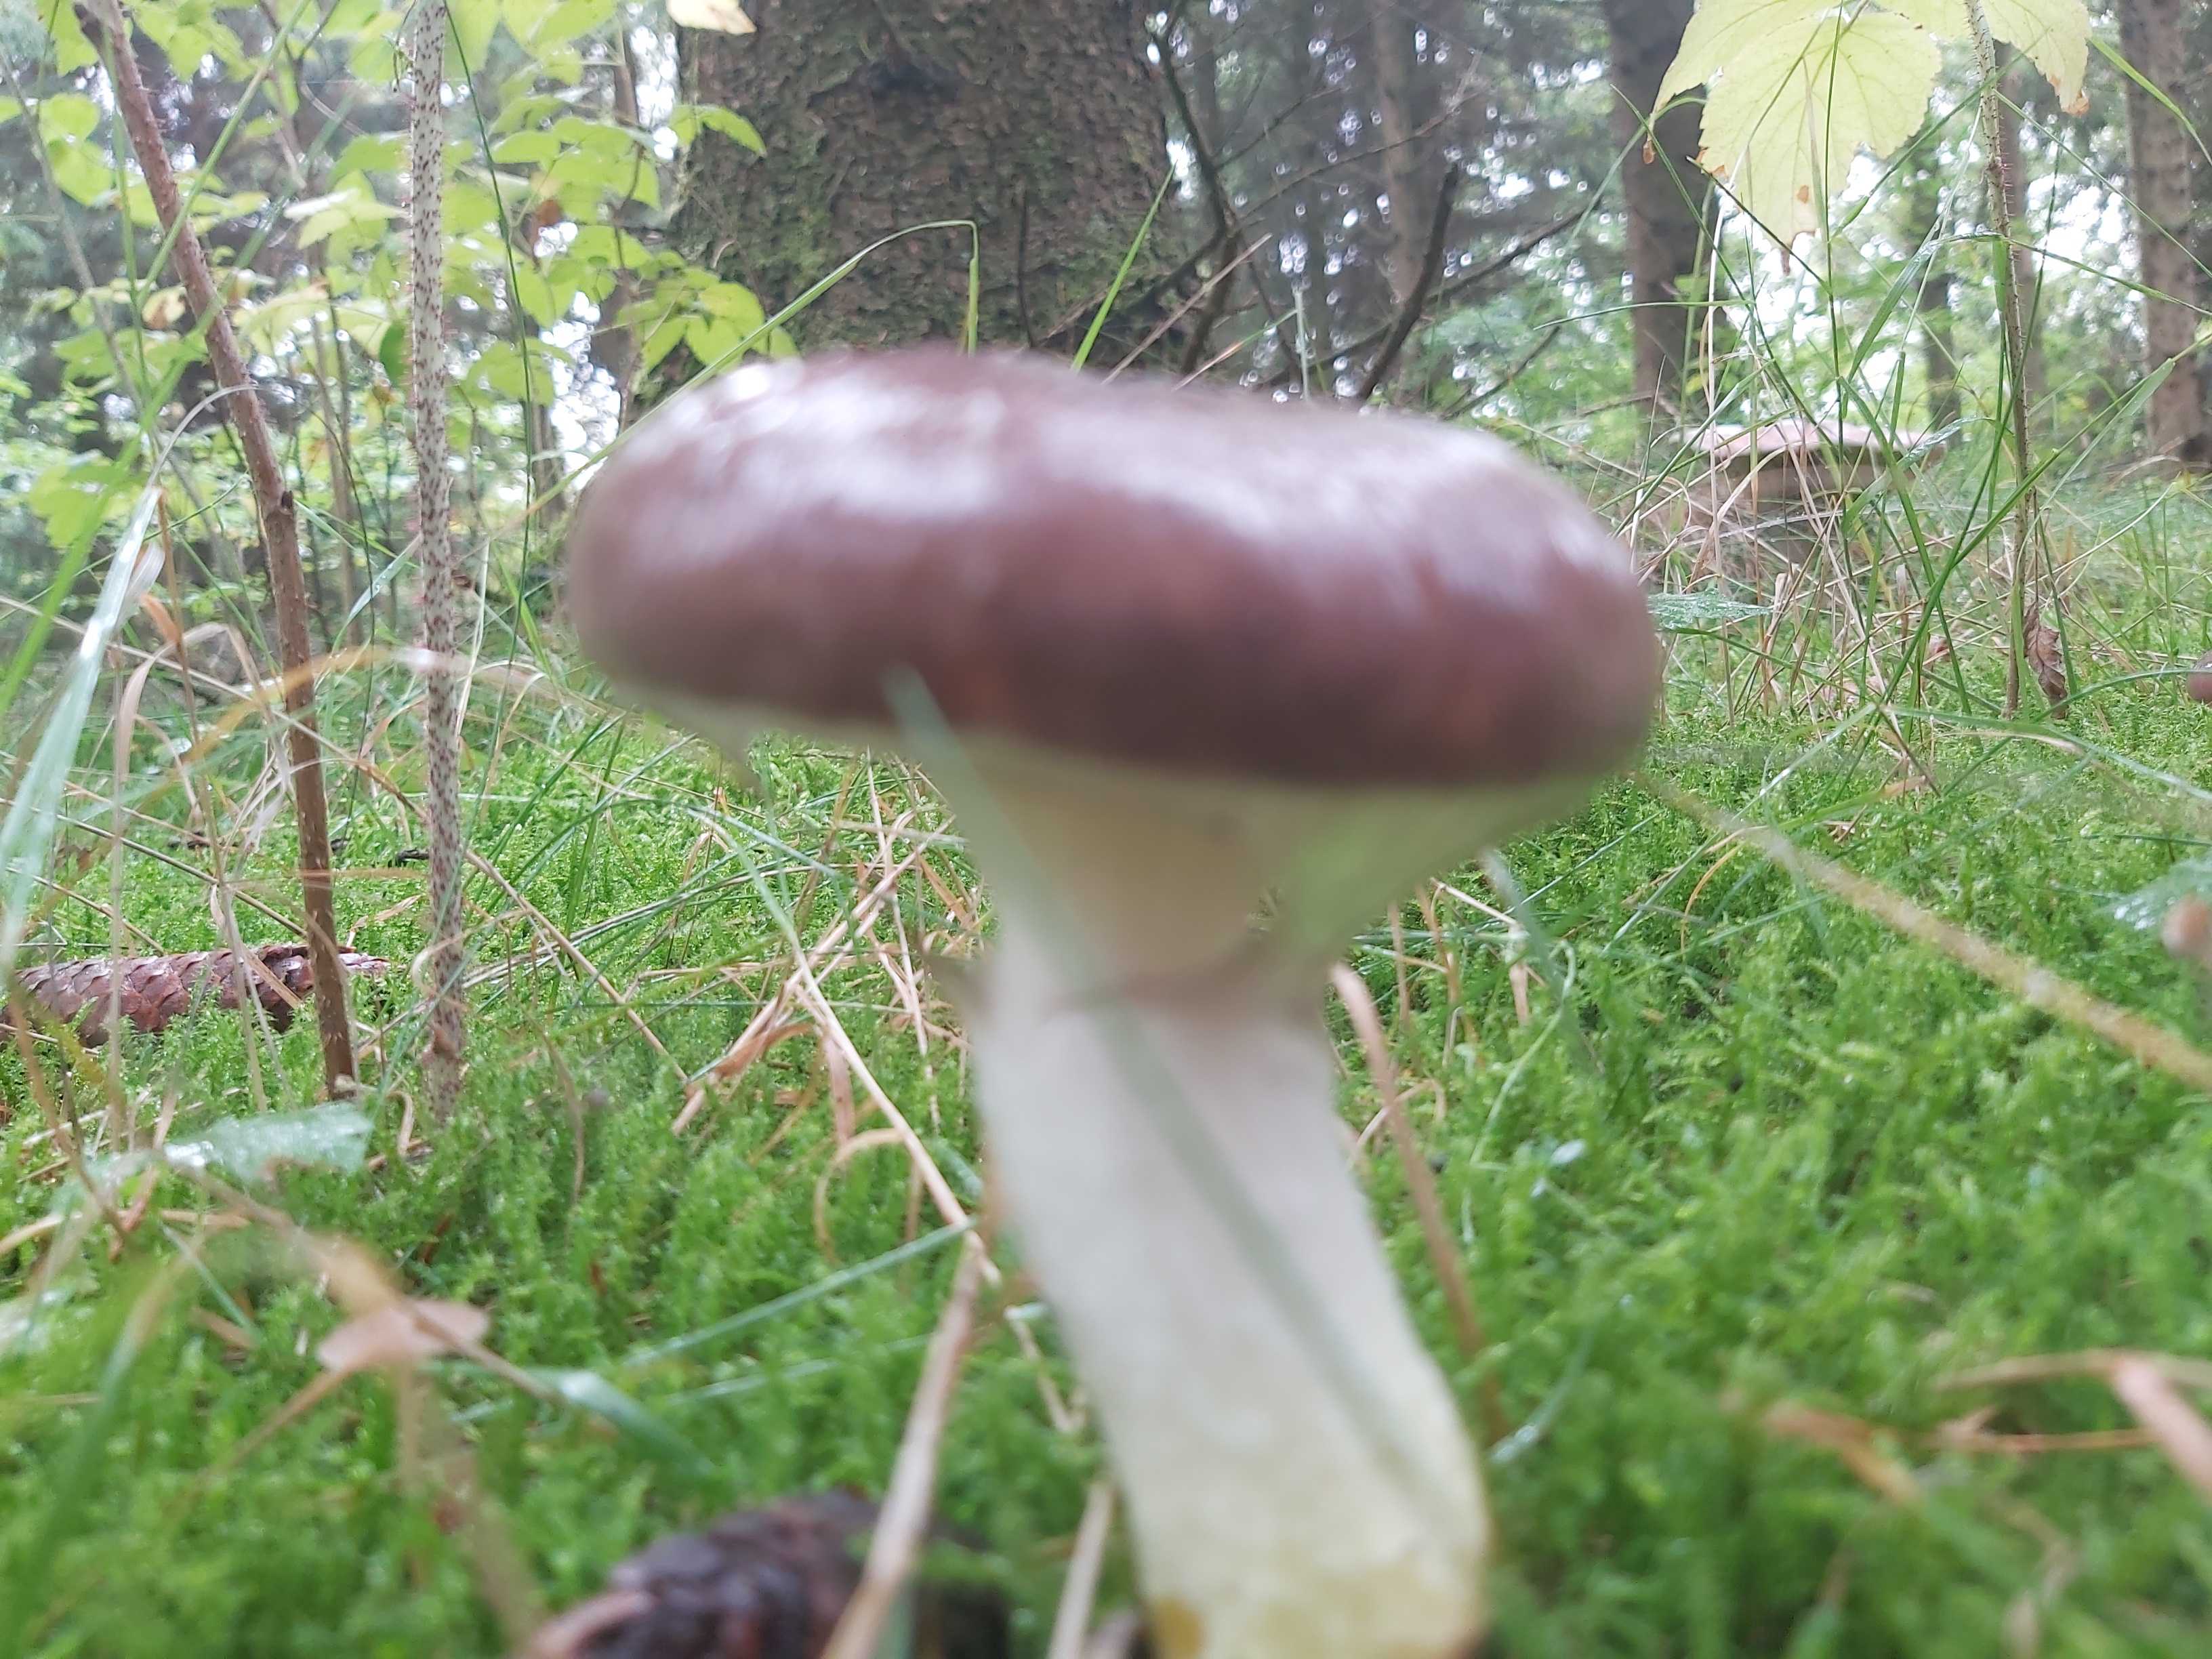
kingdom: Fungi
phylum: Basidiomycota
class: Agaricomycetes
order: Boletales
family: Gomphidiaceae
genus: Gomphidius
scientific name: Gomphidius glutinosus
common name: grå slimslør
